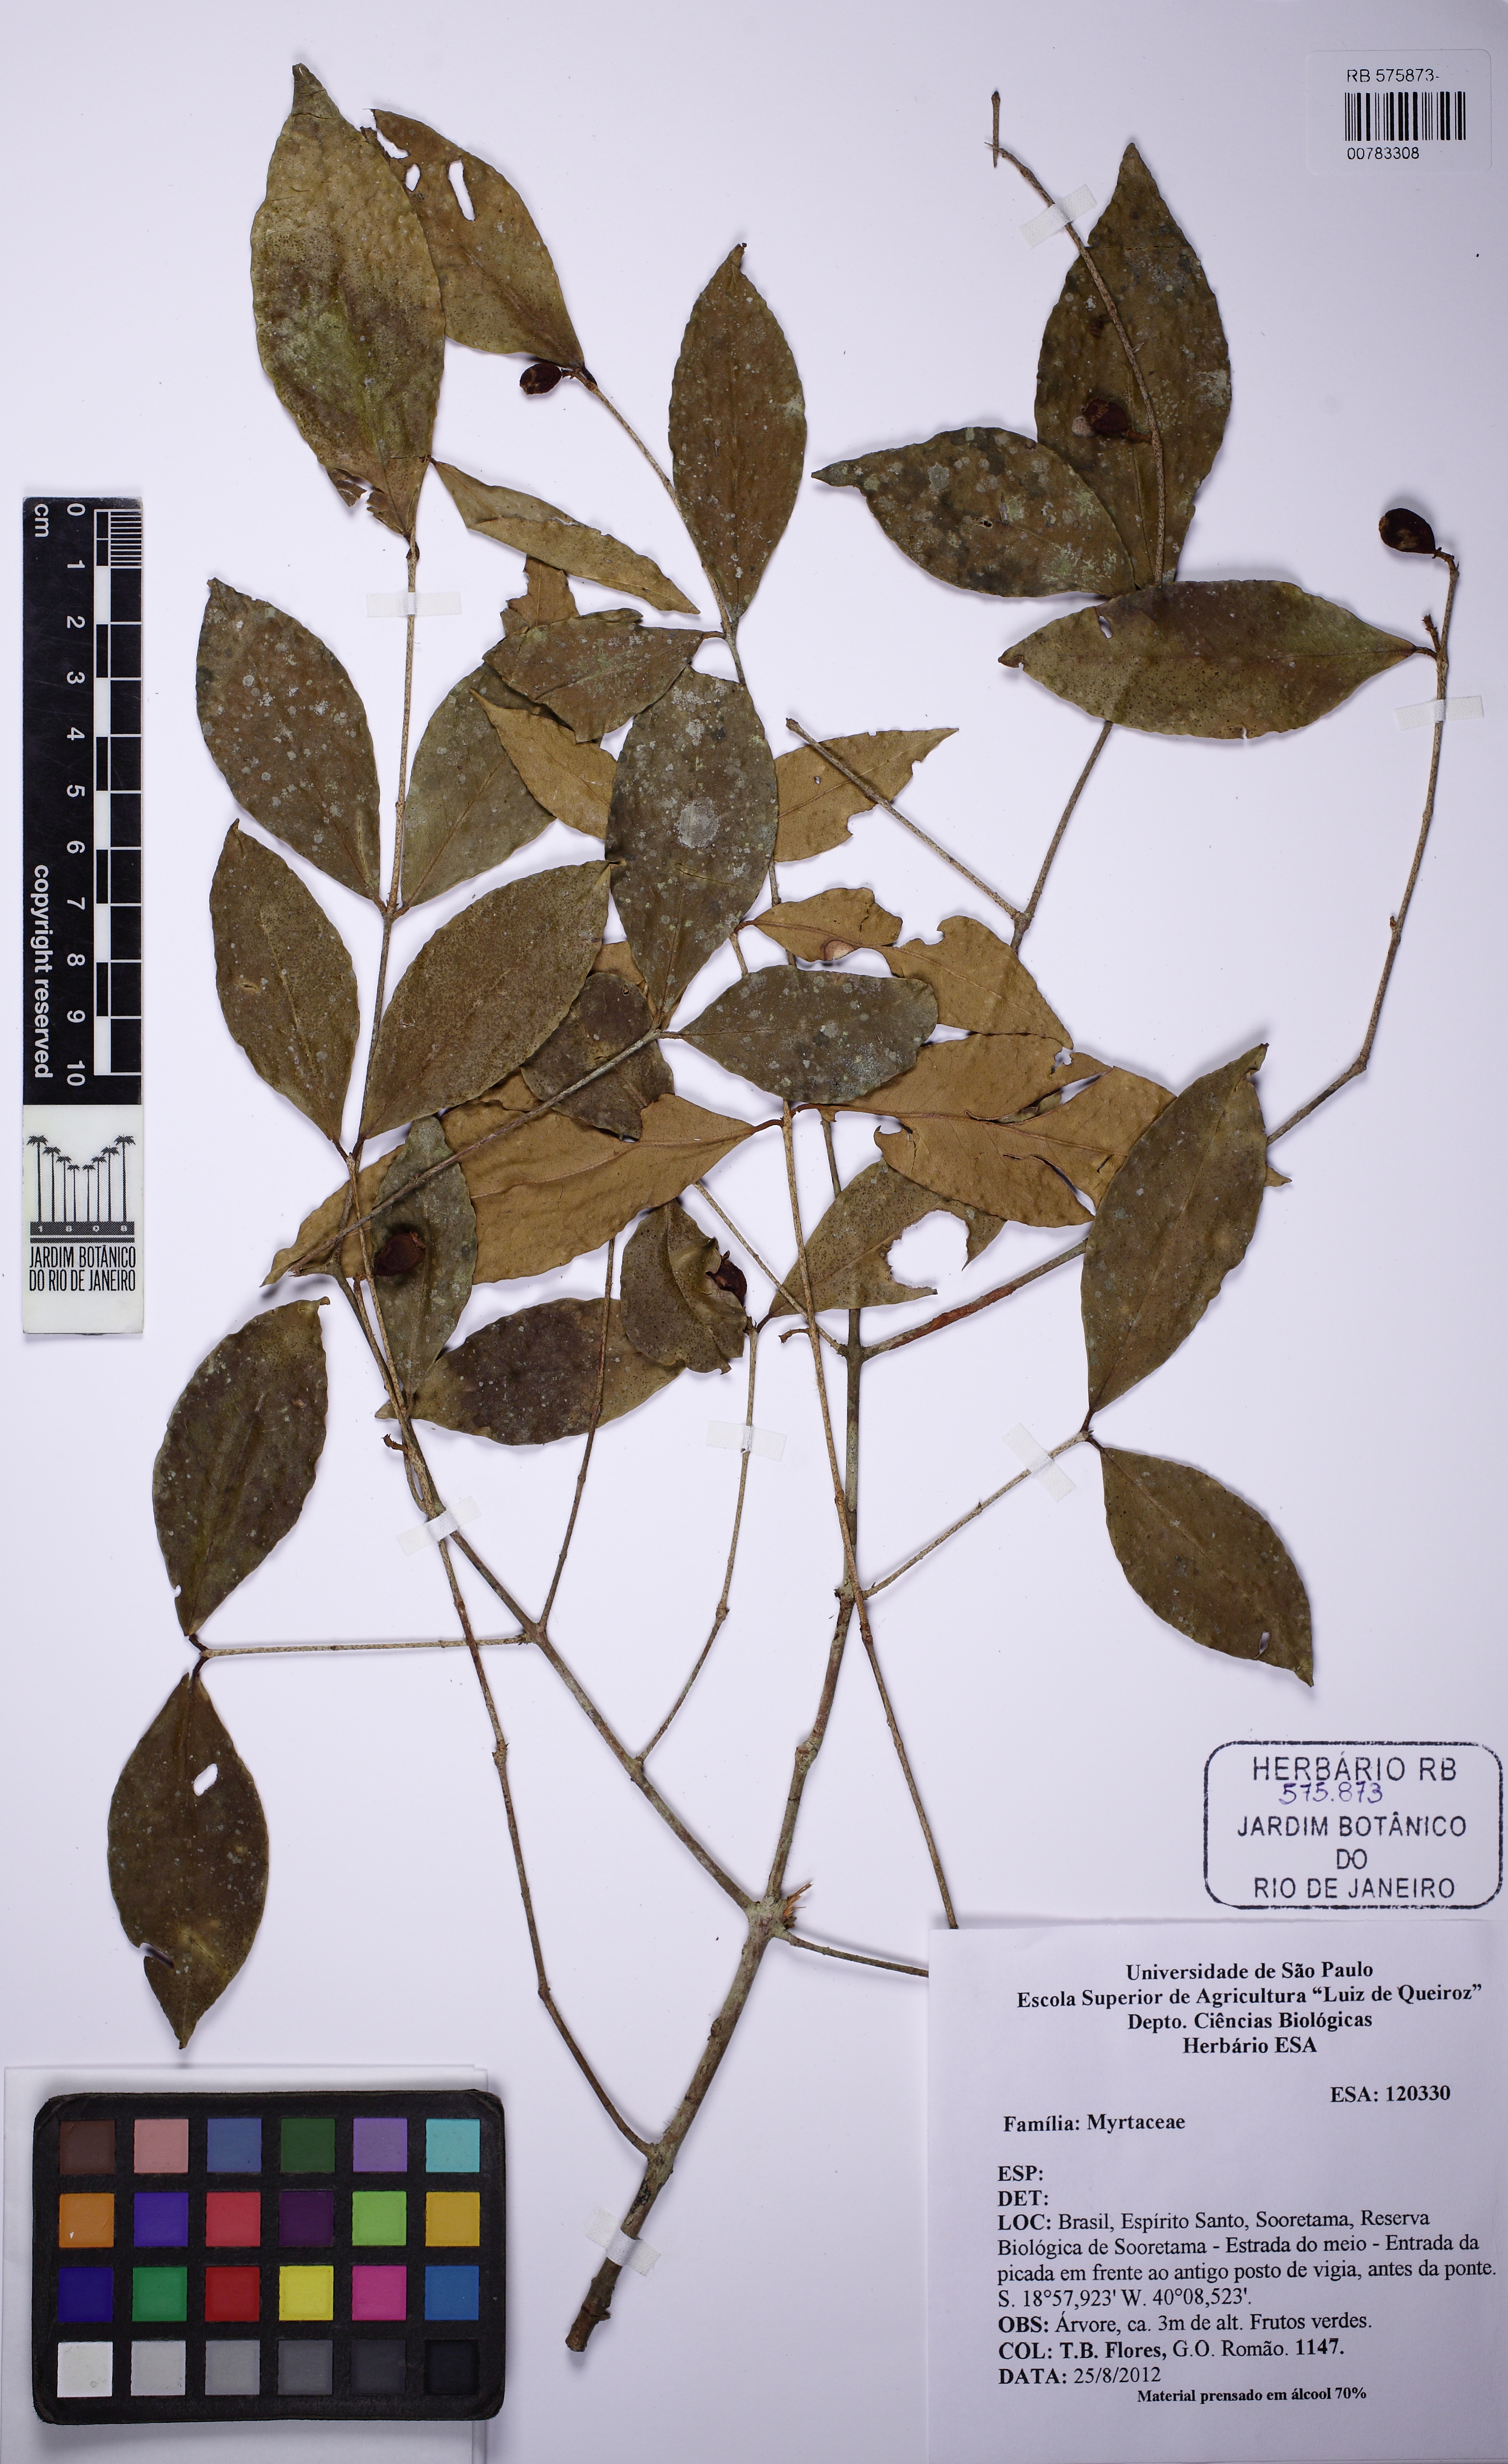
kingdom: Plantae
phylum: Tracheophyta
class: Magnoliopsida
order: Myrtales
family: Myrtaceae
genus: Eugenia
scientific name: Eugenia
